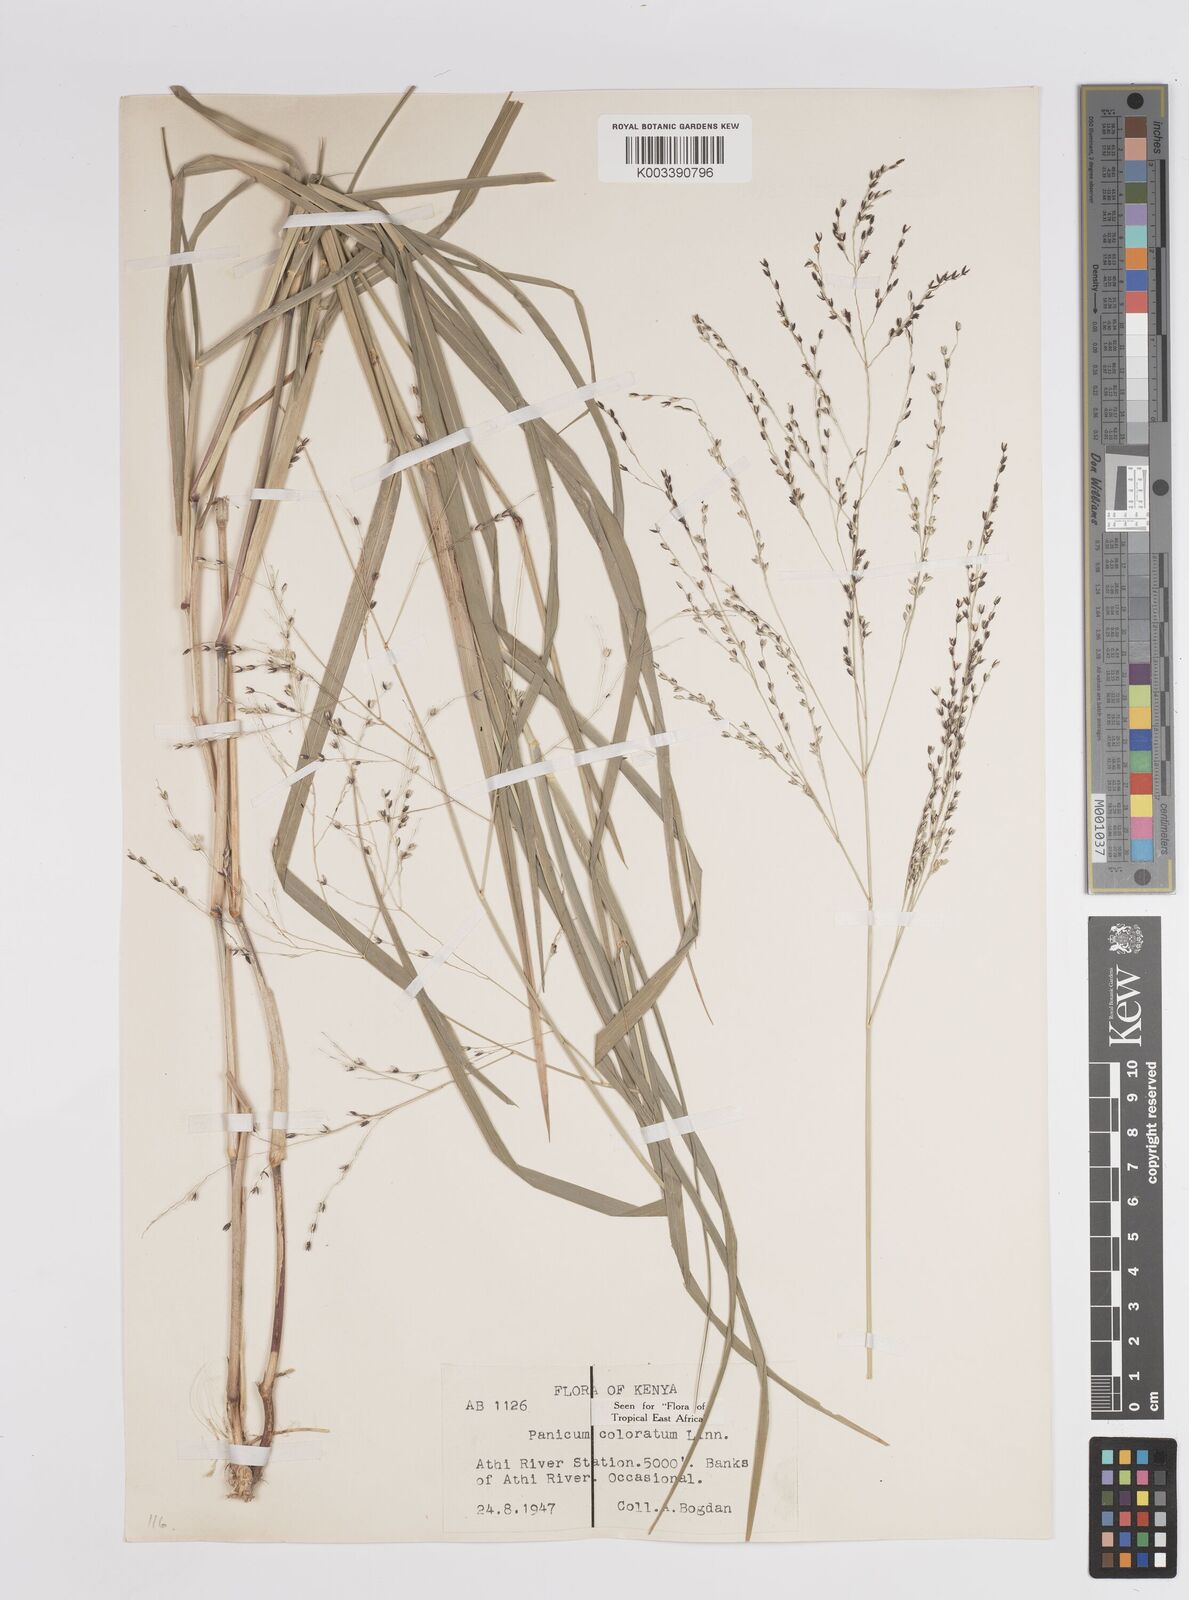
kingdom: Plantae
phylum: Tracheophyta
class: Liliopsida
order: Poales
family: Poaceae
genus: Panicum
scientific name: Panicum coloratum
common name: Kleingrass
